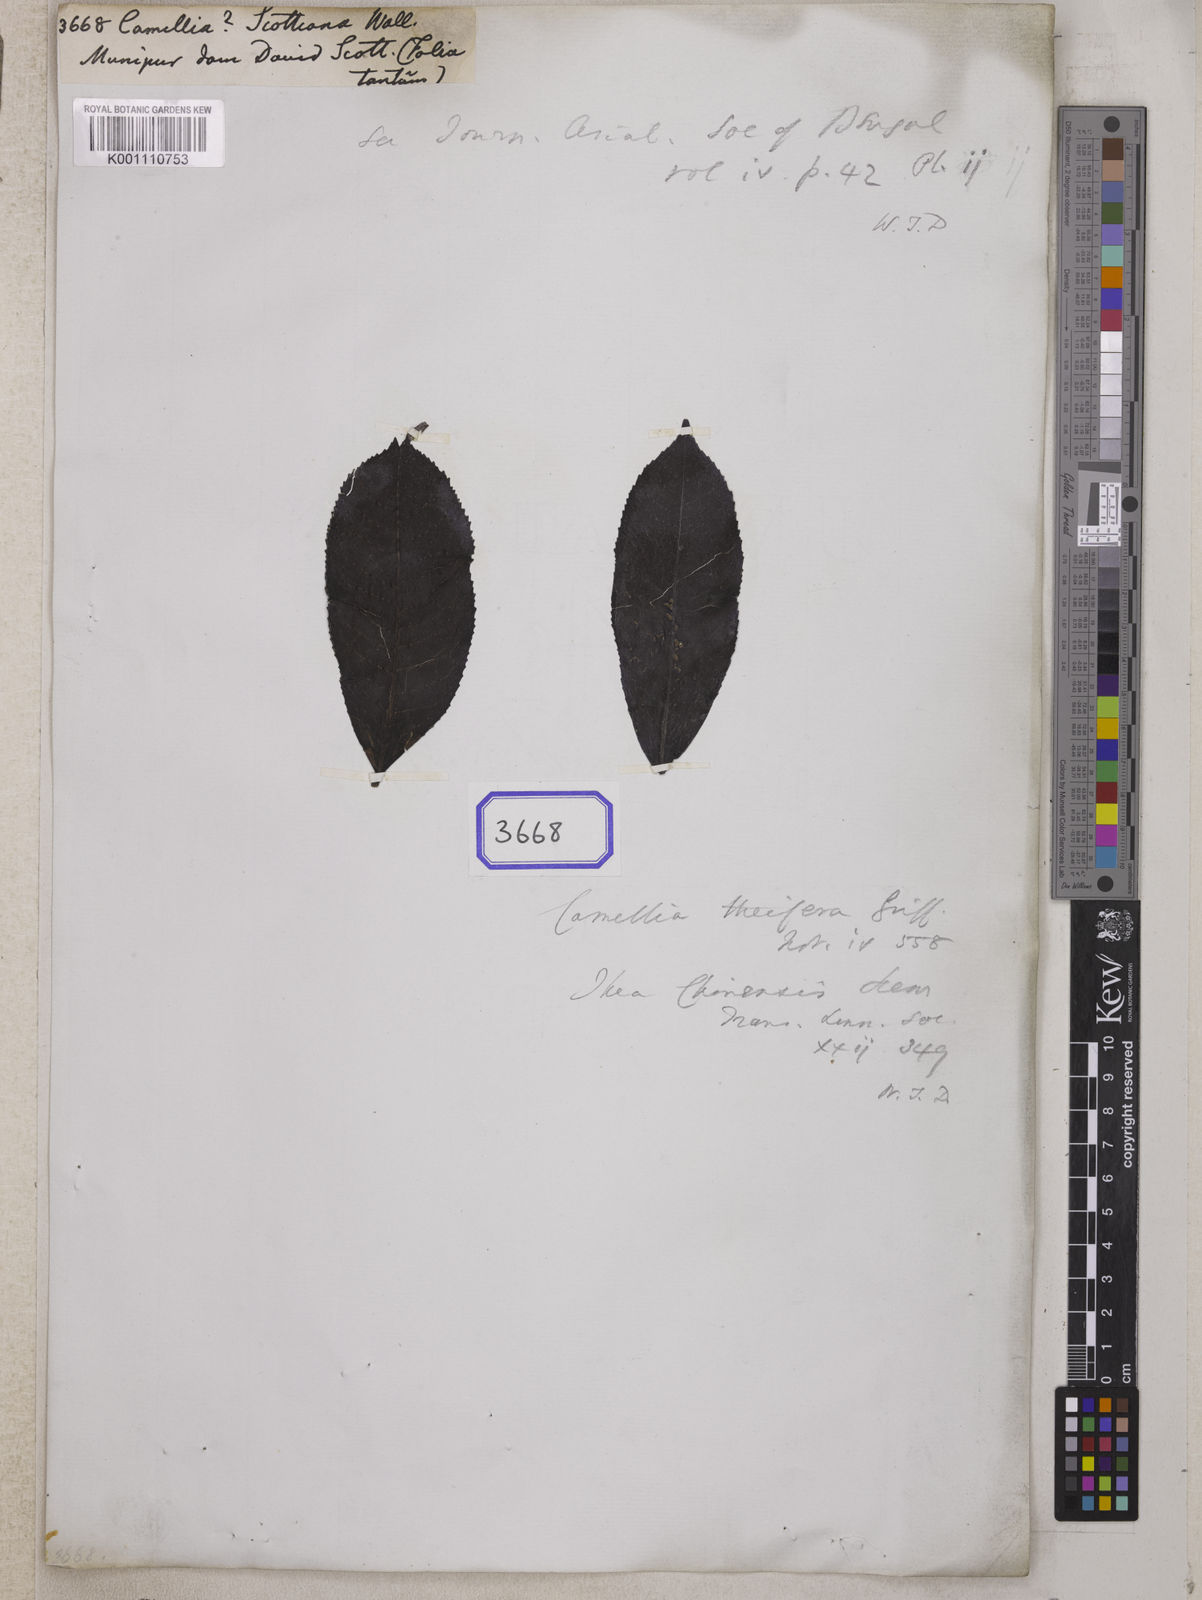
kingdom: Plantae
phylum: Tracheophyta
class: Magnoliopsida
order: Ericales
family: Theaceae
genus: Camellia
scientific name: Camellia
